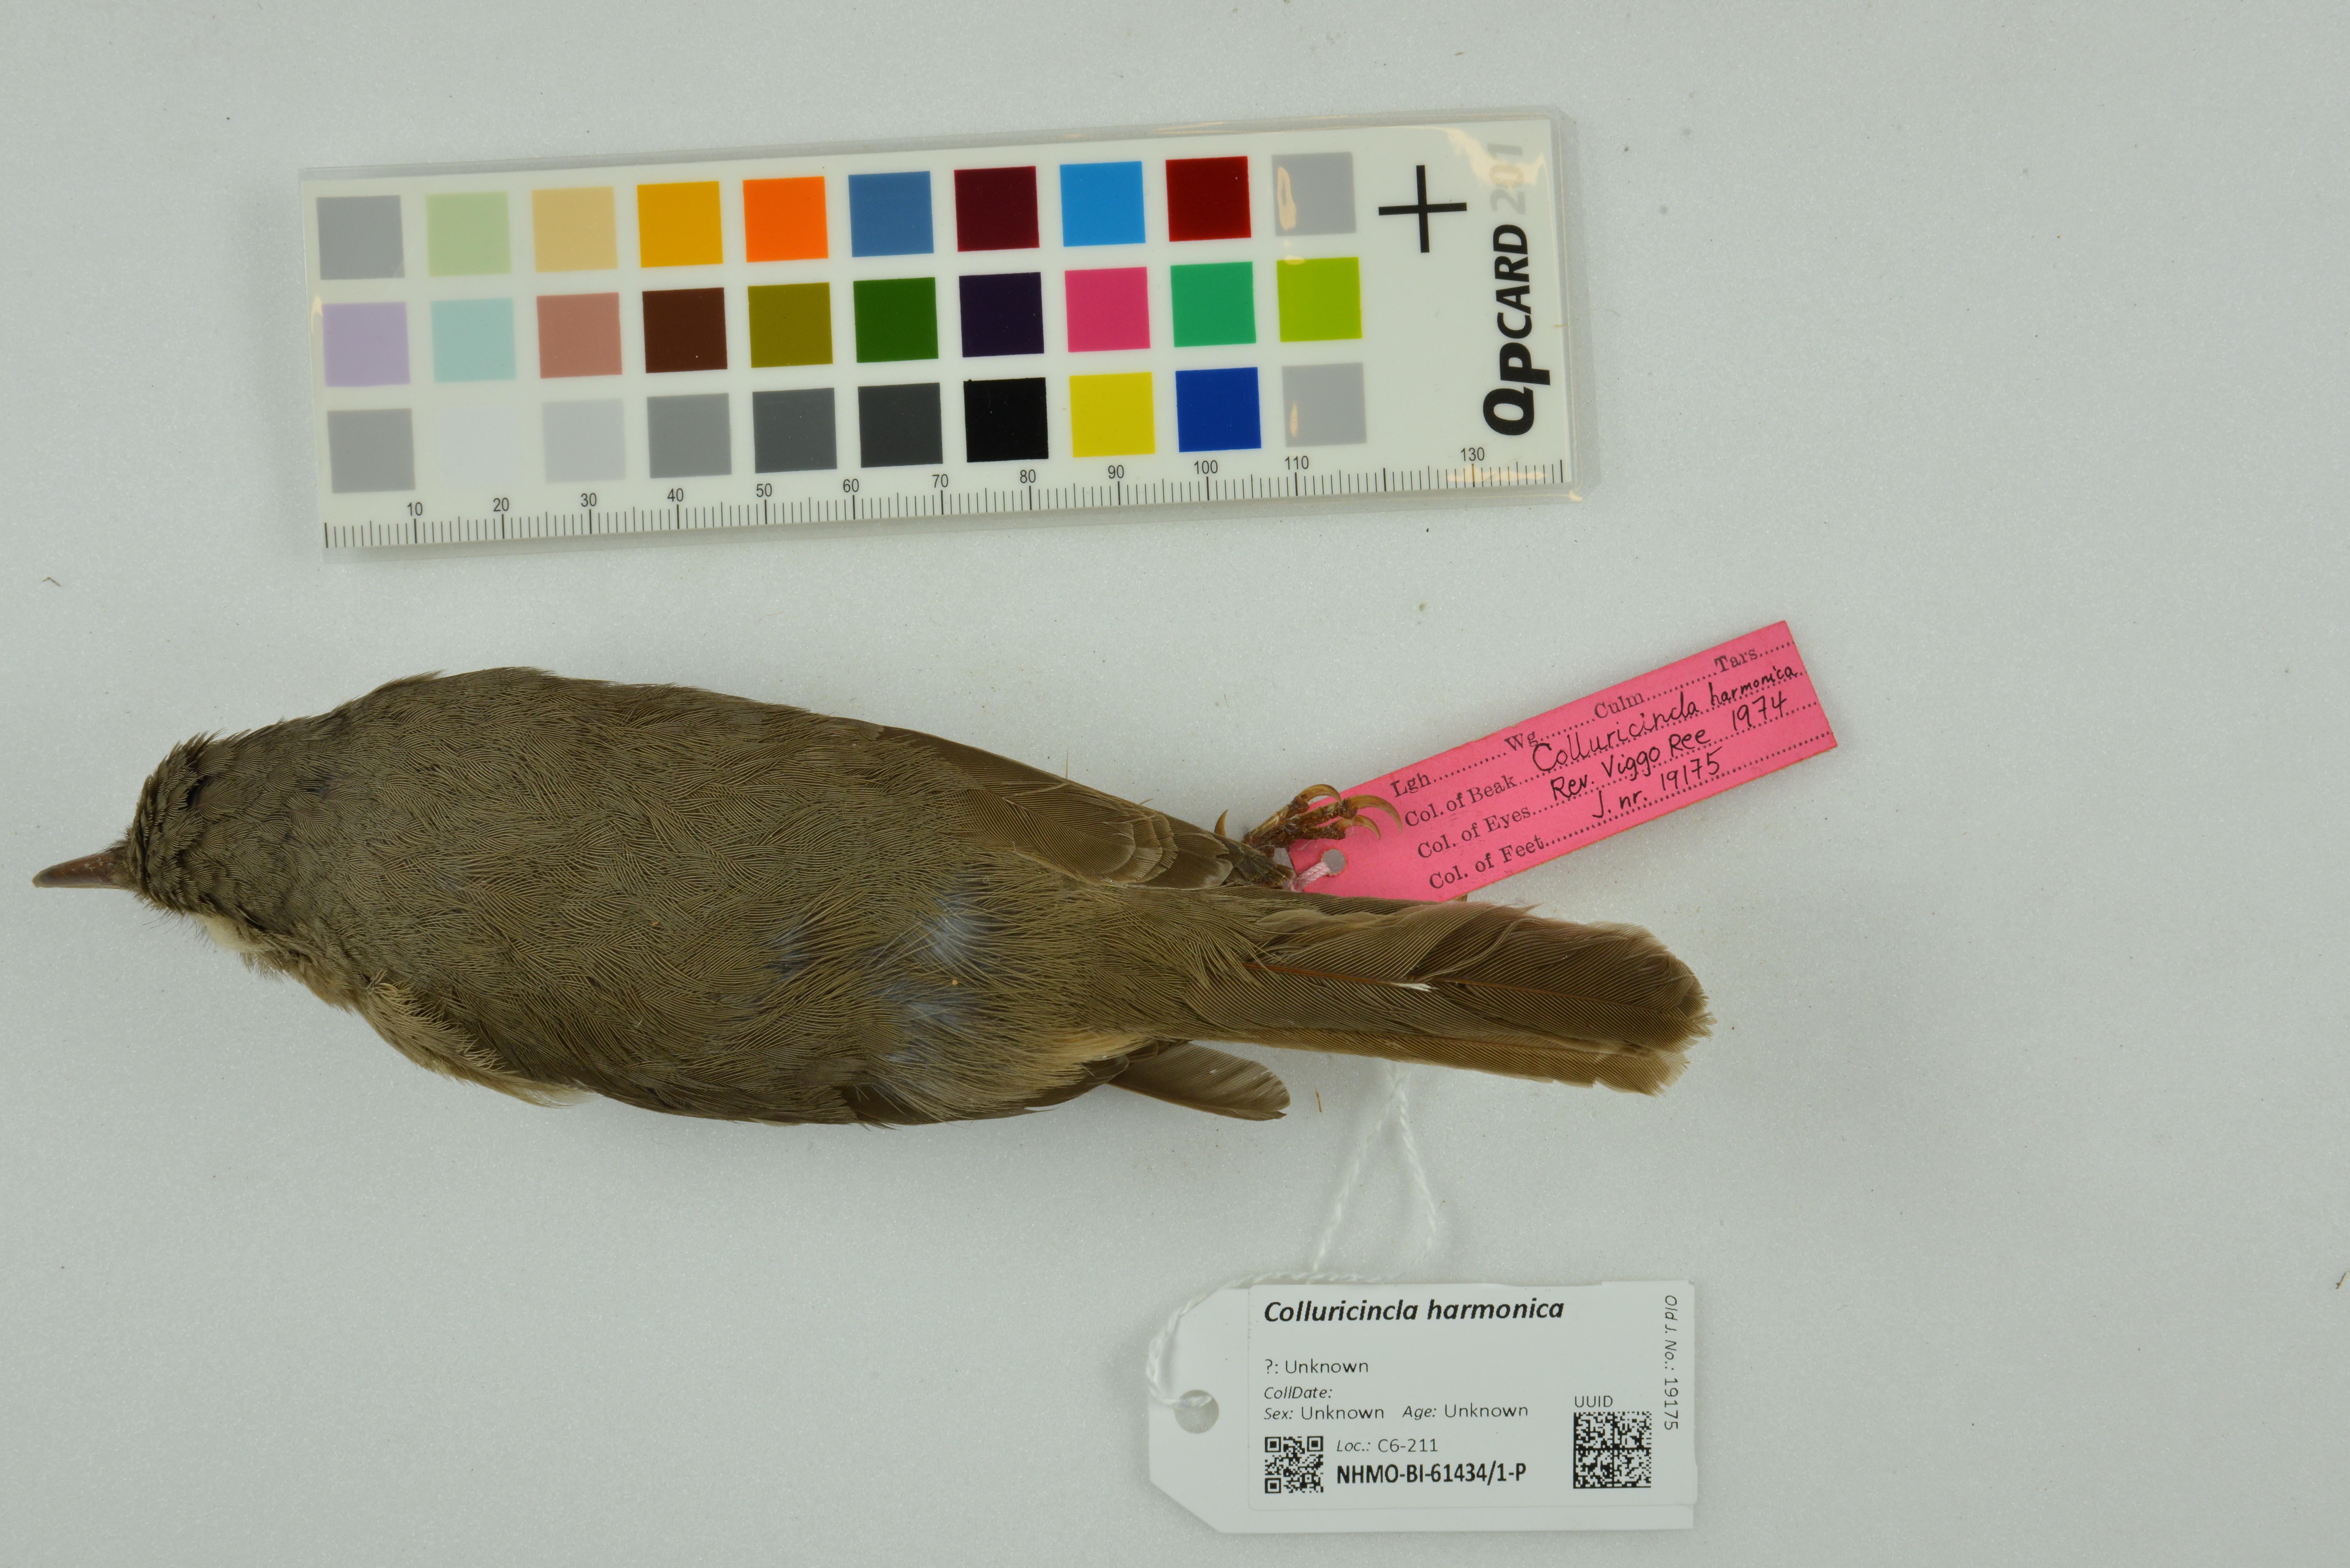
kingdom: Animalia
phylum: Chordata
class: Aves
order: Passeriformes
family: Pachycephalidae
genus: Colluricincla
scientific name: Colluricincla harmonica
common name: Grey shrikethrush
